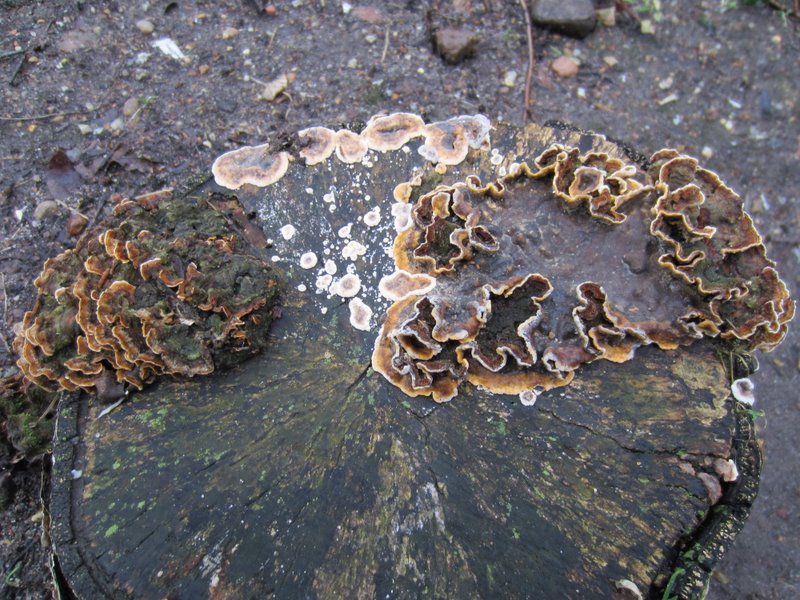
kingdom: Fungi
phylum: Basidiomycota
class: Agaricomycetes
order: Russulales
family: Stereaceae
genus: Stereum
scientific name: Stereum hirsutum
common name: håret lædersvamp
